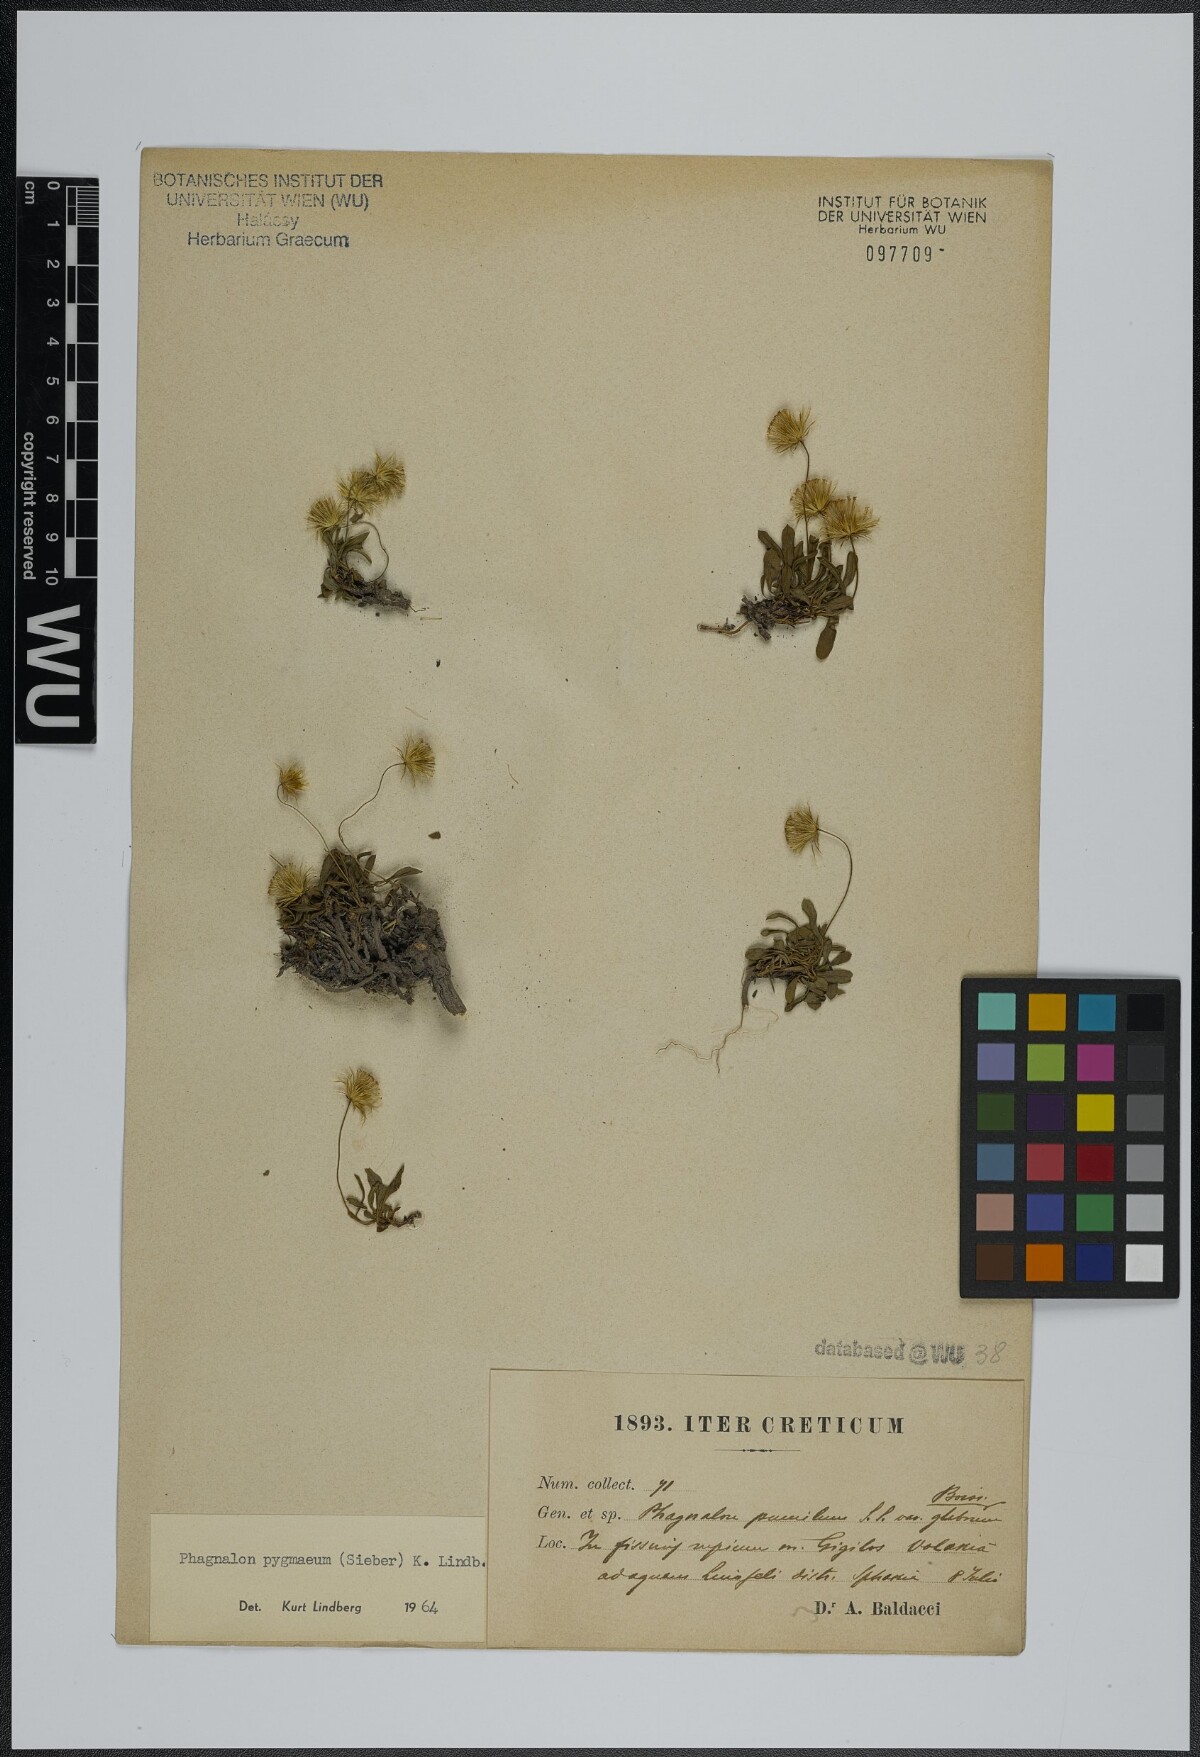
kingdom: Plantae
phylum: Tracheophyta
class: Magnoliopsida
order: Asterales
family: Asteraceae
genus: Phagnalon
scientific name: Phagnalon pygmaeum
